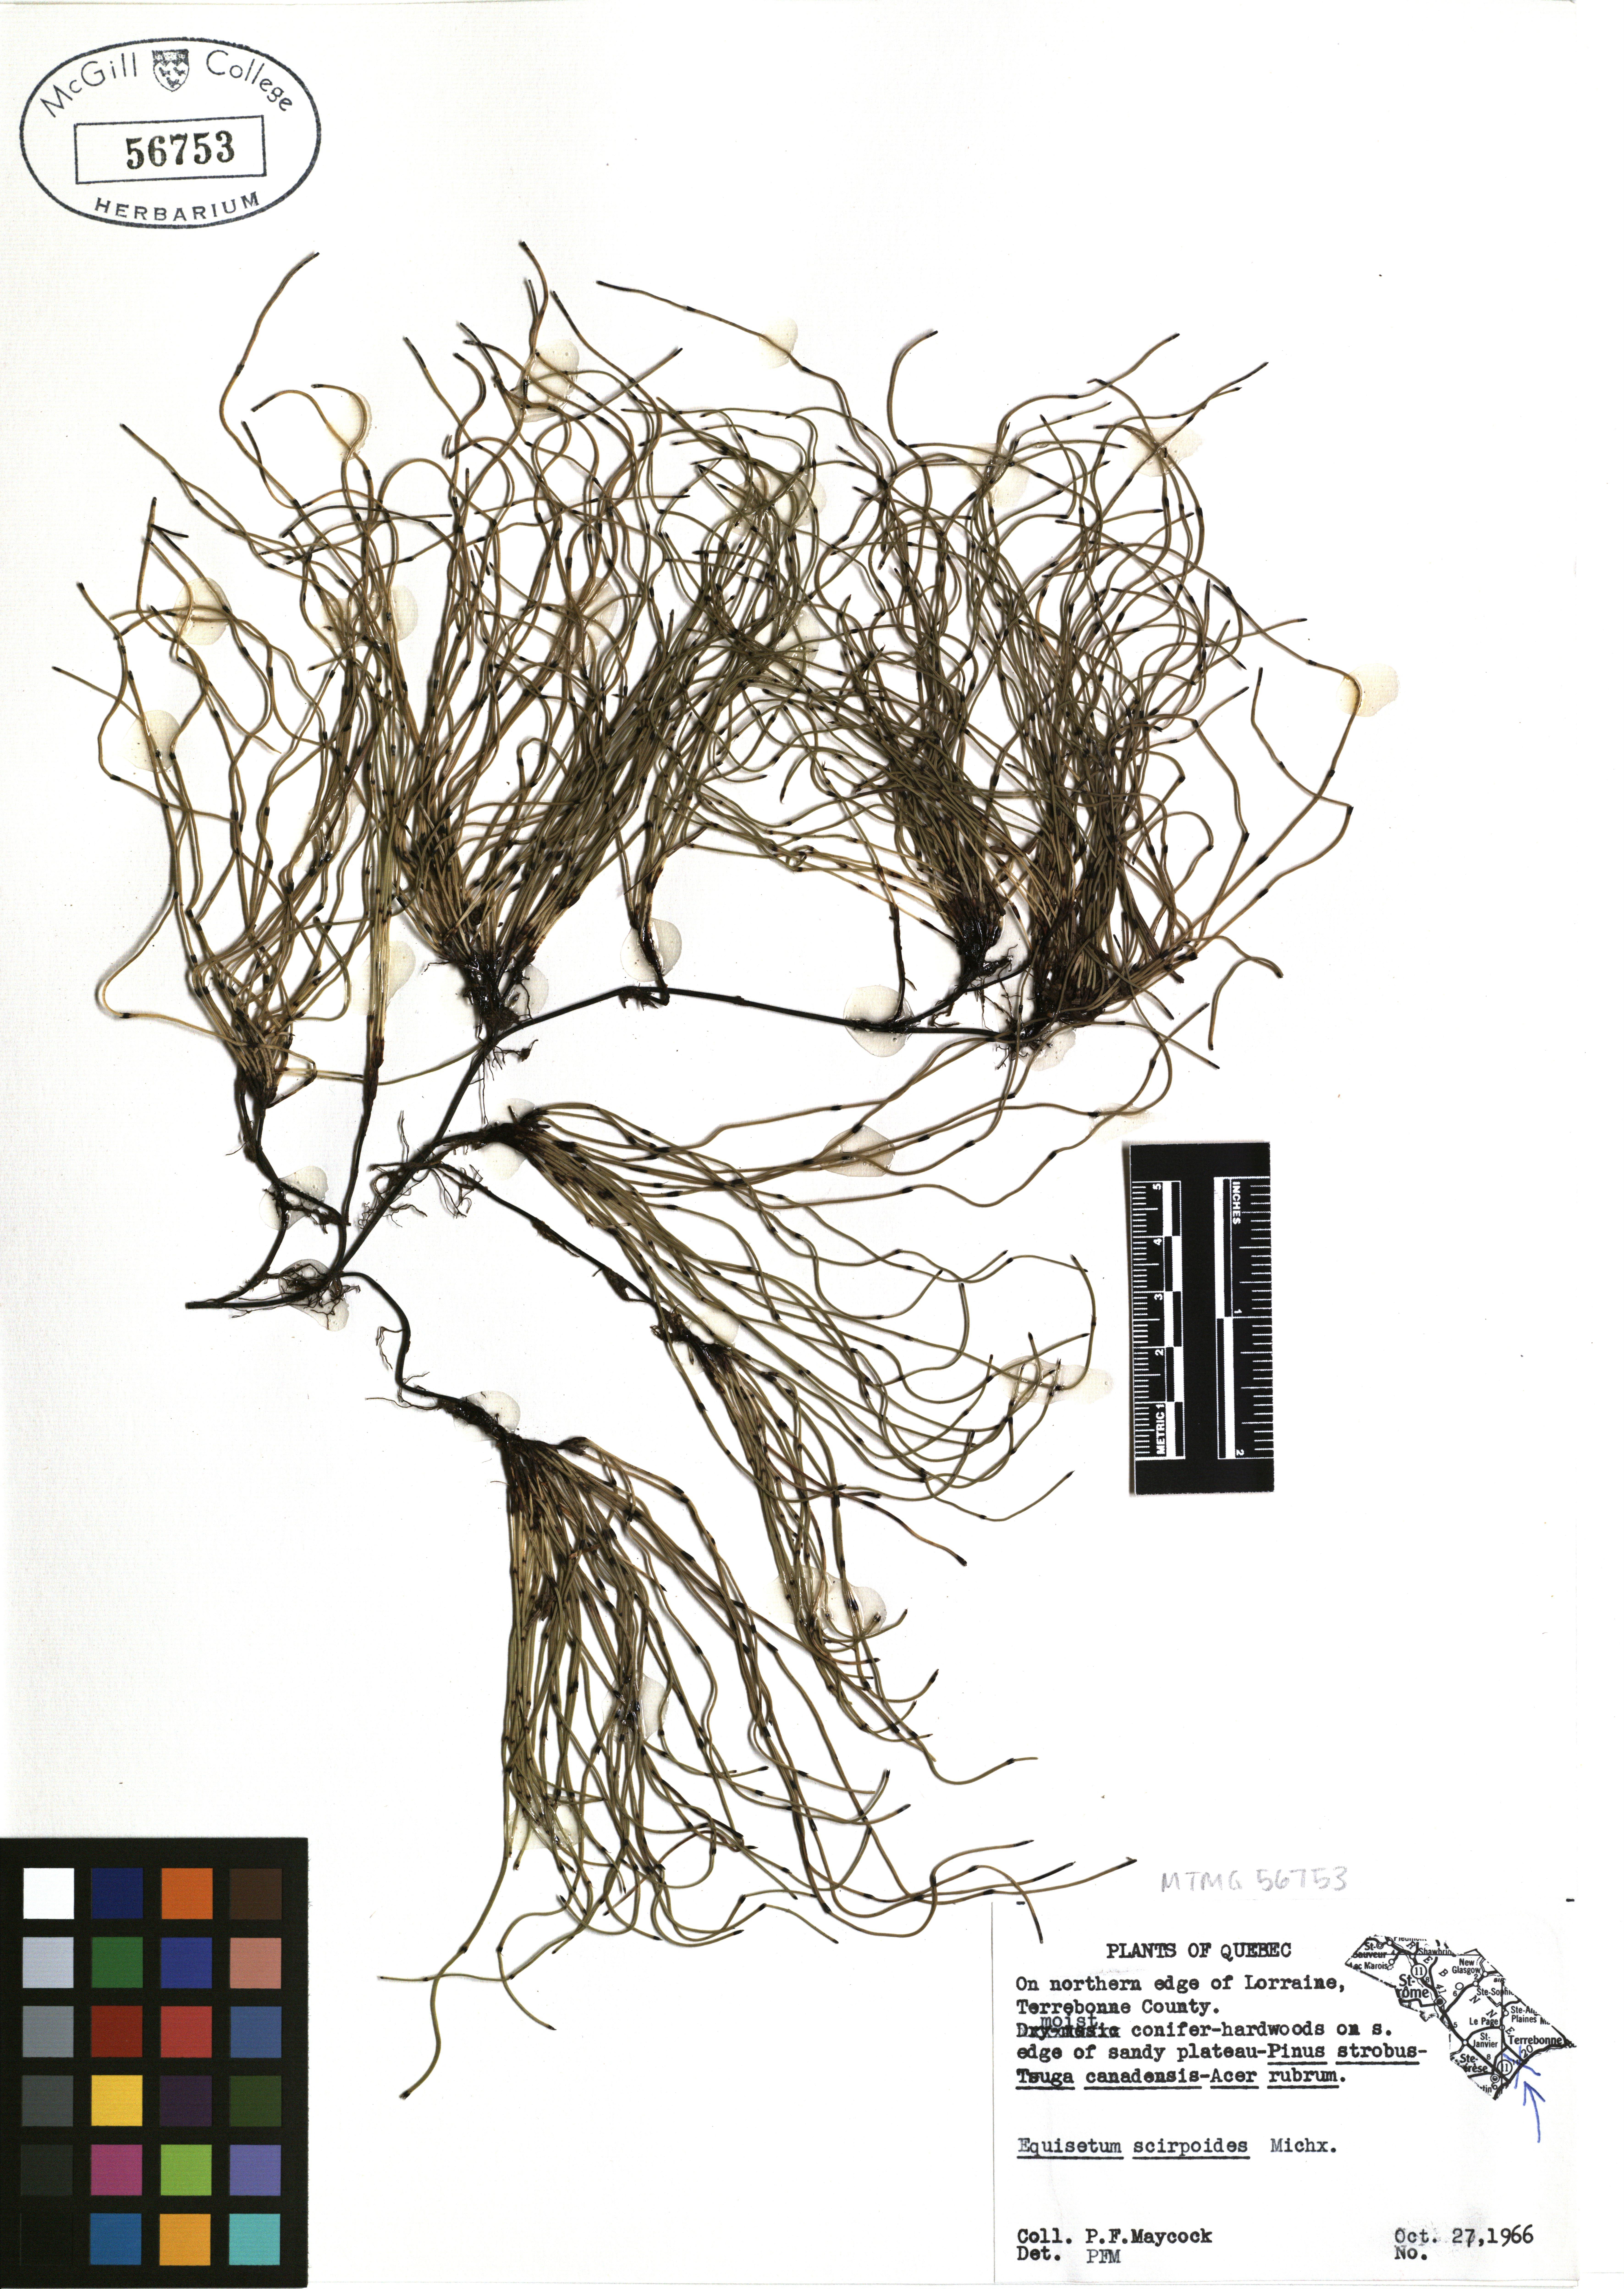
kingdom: Plantae
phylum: Tracheophyta
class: Polypodiopsida
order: Equisetales
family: Equisetaceae
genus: Equisetum
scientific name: Equisetum scirpoides
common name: Delicate horsetail
